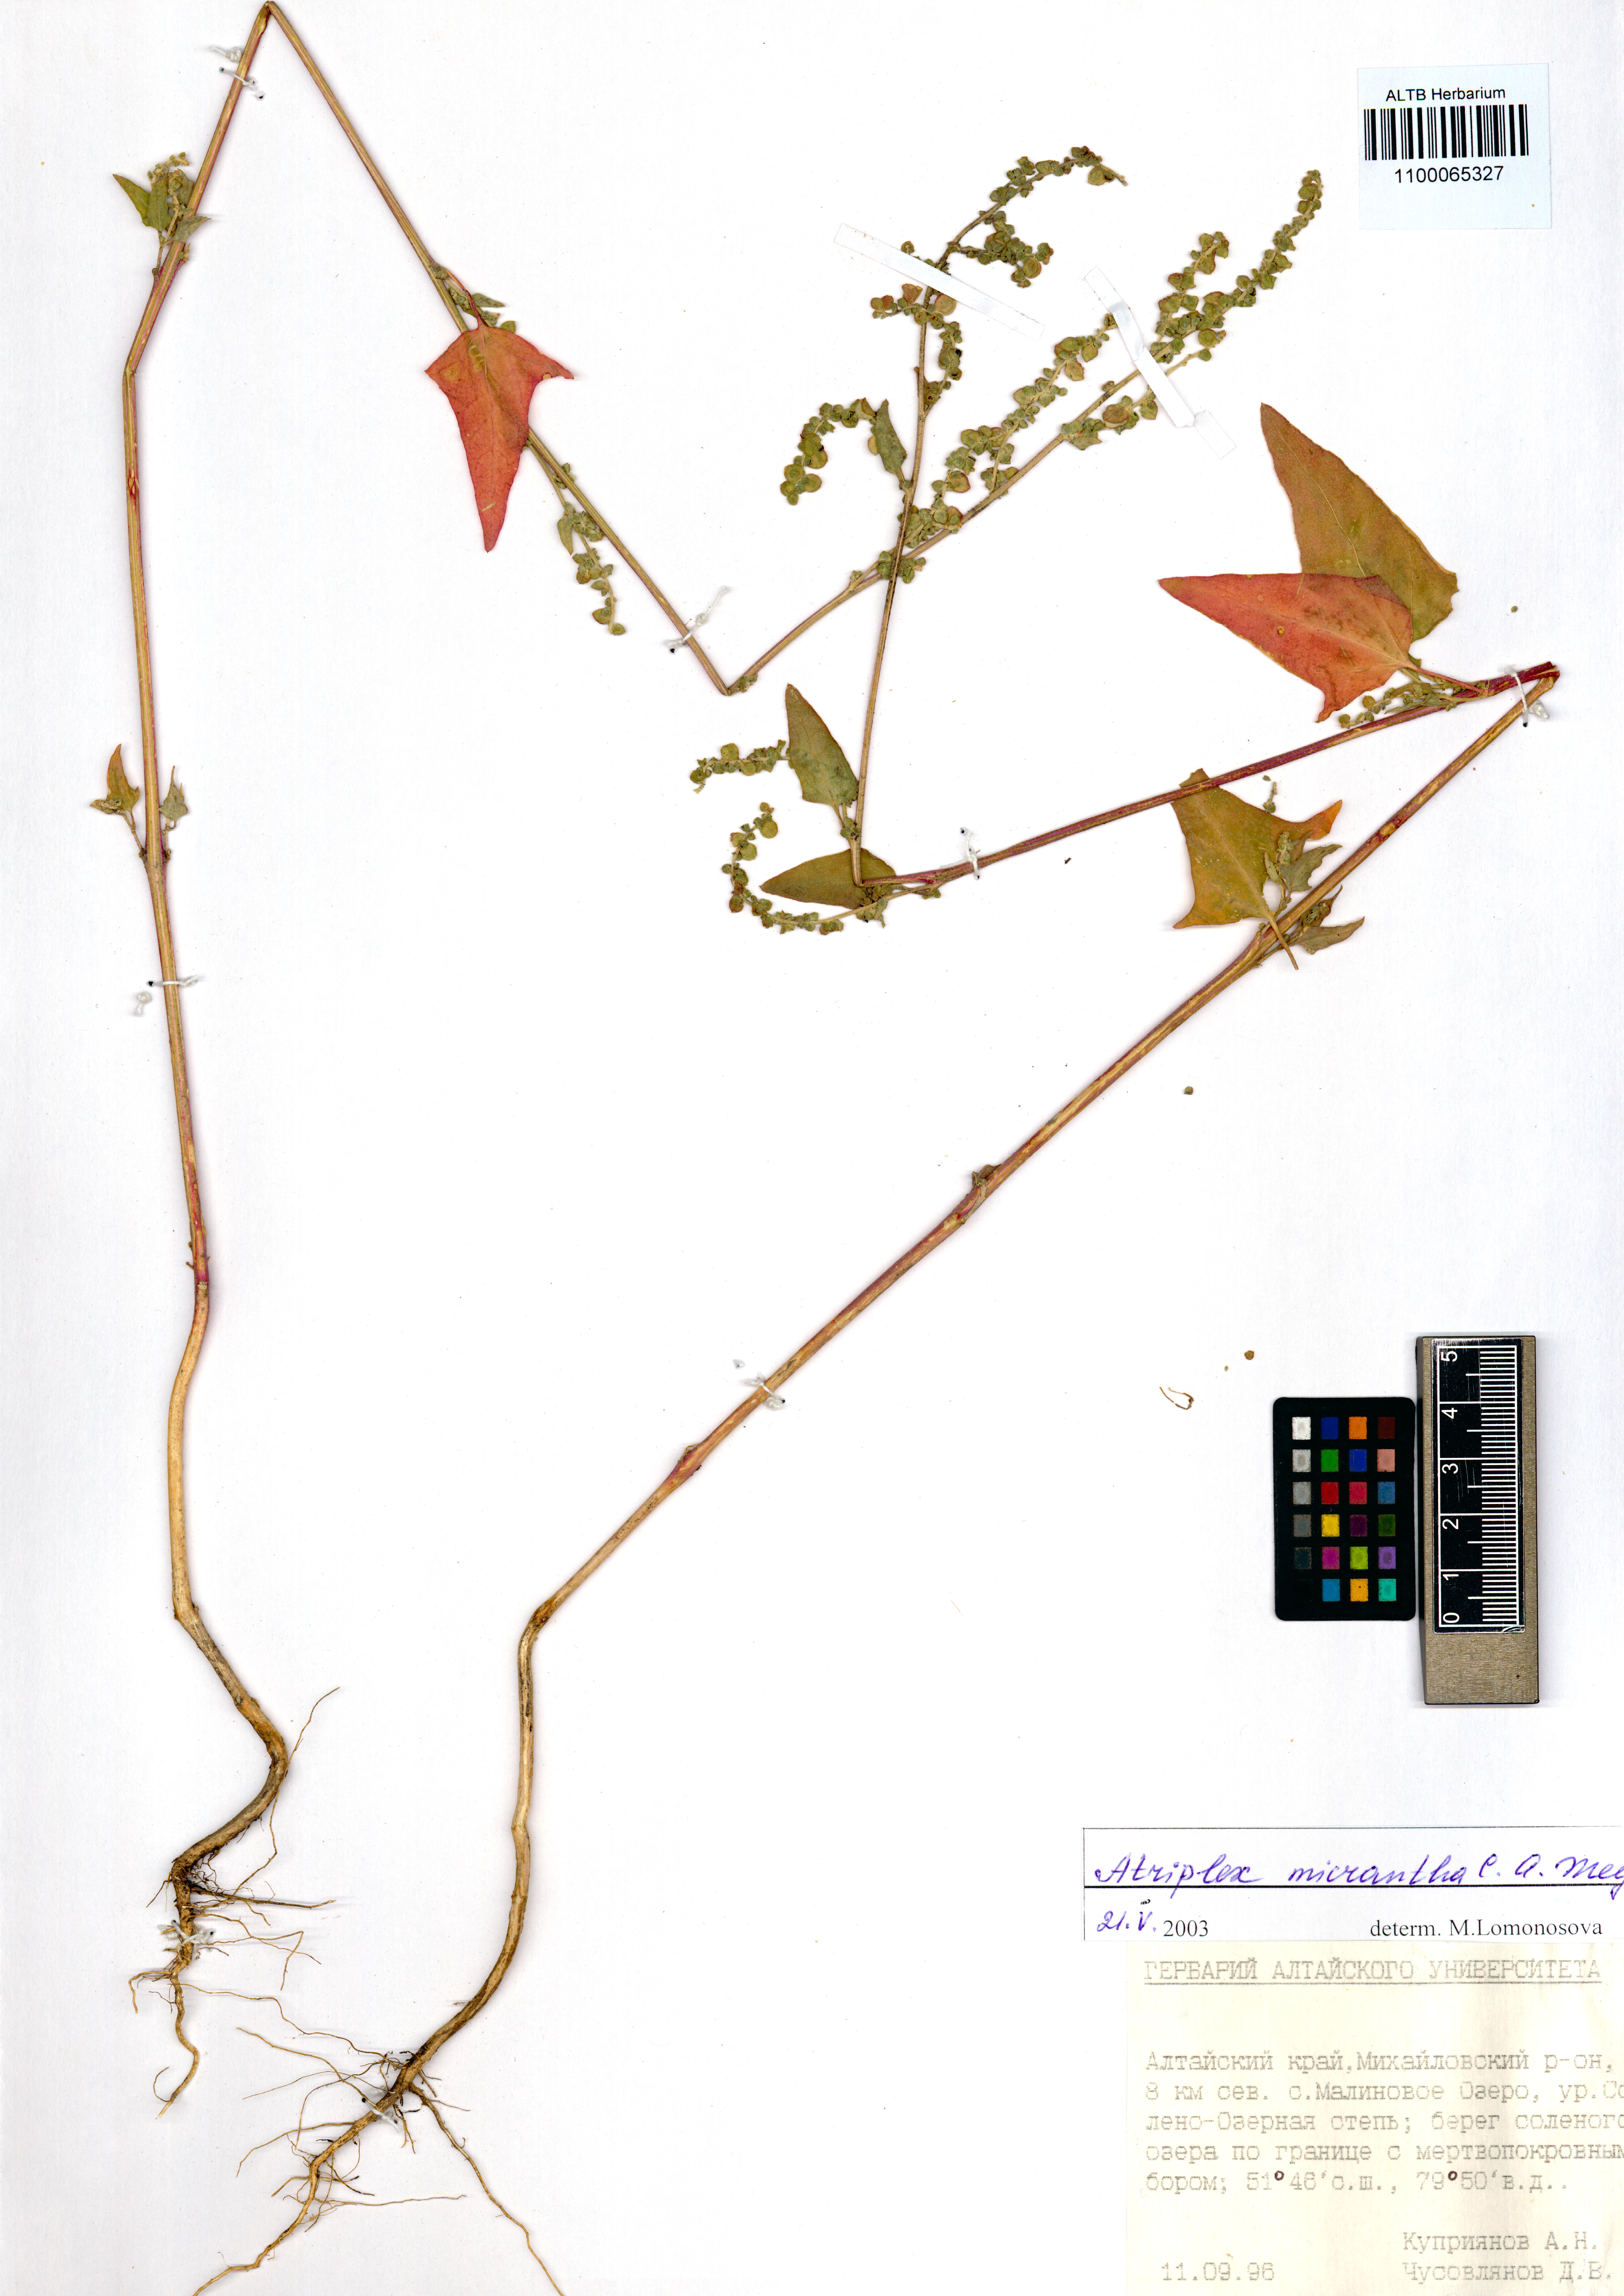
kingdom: Plantae
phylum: Tracheophyta
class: Magnoliopsida
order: Caryophyllales
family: Amaranthaceae
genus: Atriplex
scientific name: Atriplex micrantha
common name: Twoscale saltbush
